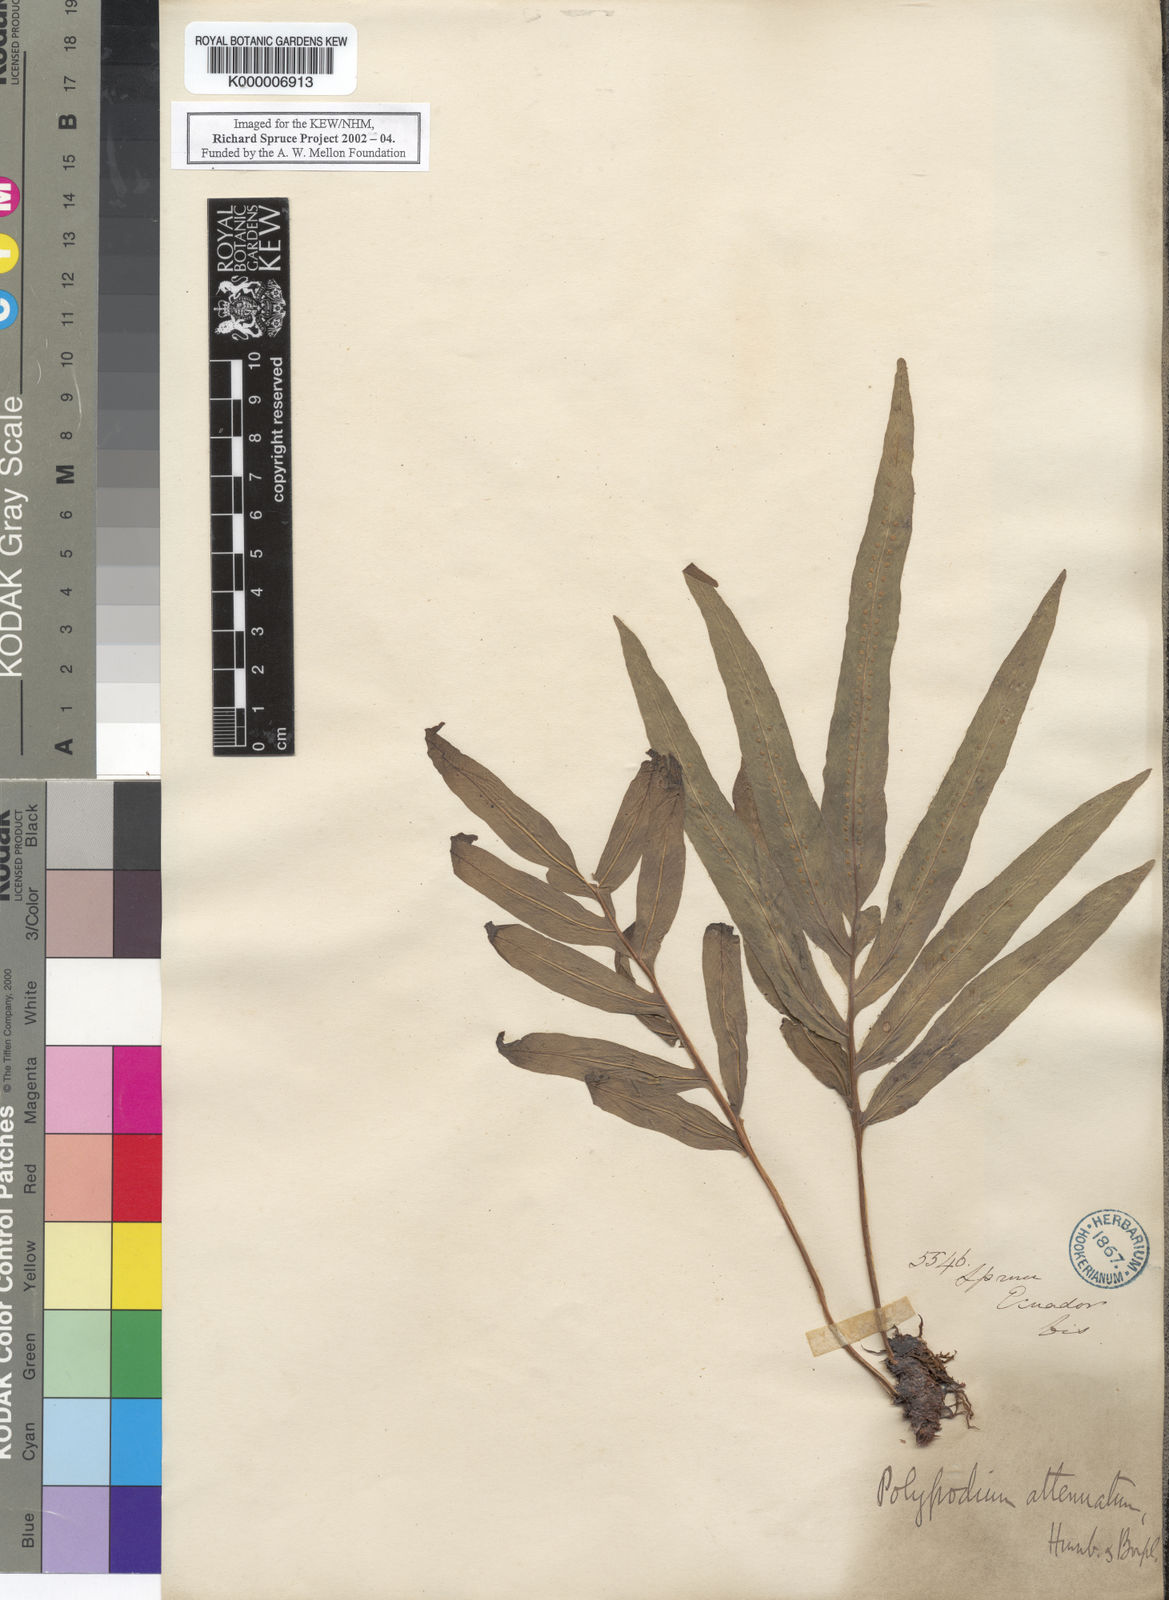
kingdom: Plantae
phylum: Tracheophyta
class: Polypodiopsida
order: Polypodiales
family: Polypodiaceae
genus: Serpocaulon
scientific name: Serpocaulon triseriale
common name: Angle-vein fern
